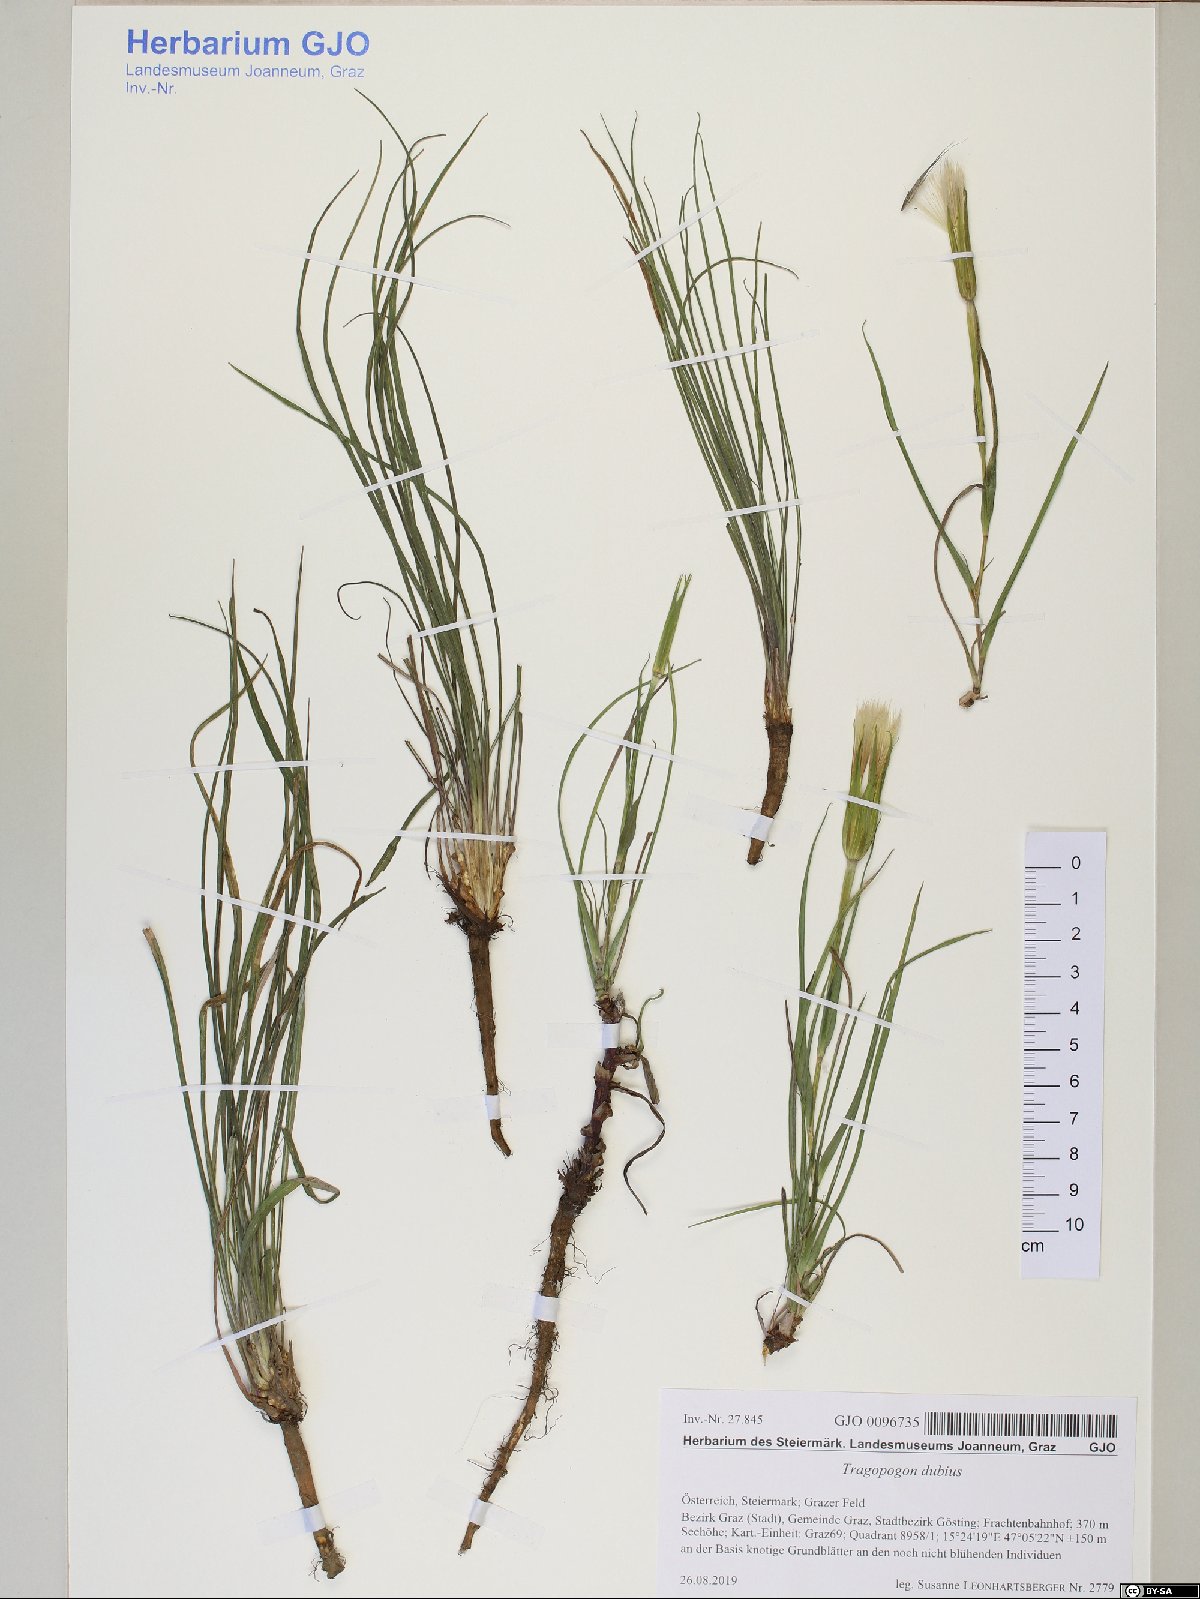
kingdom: Plantae
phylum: Tracheophyta
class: Magnoliopsida
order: Asterales
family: Asteraceae
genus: Tragopogon
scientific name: Tragopogon dubius
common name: Yellow salsify
